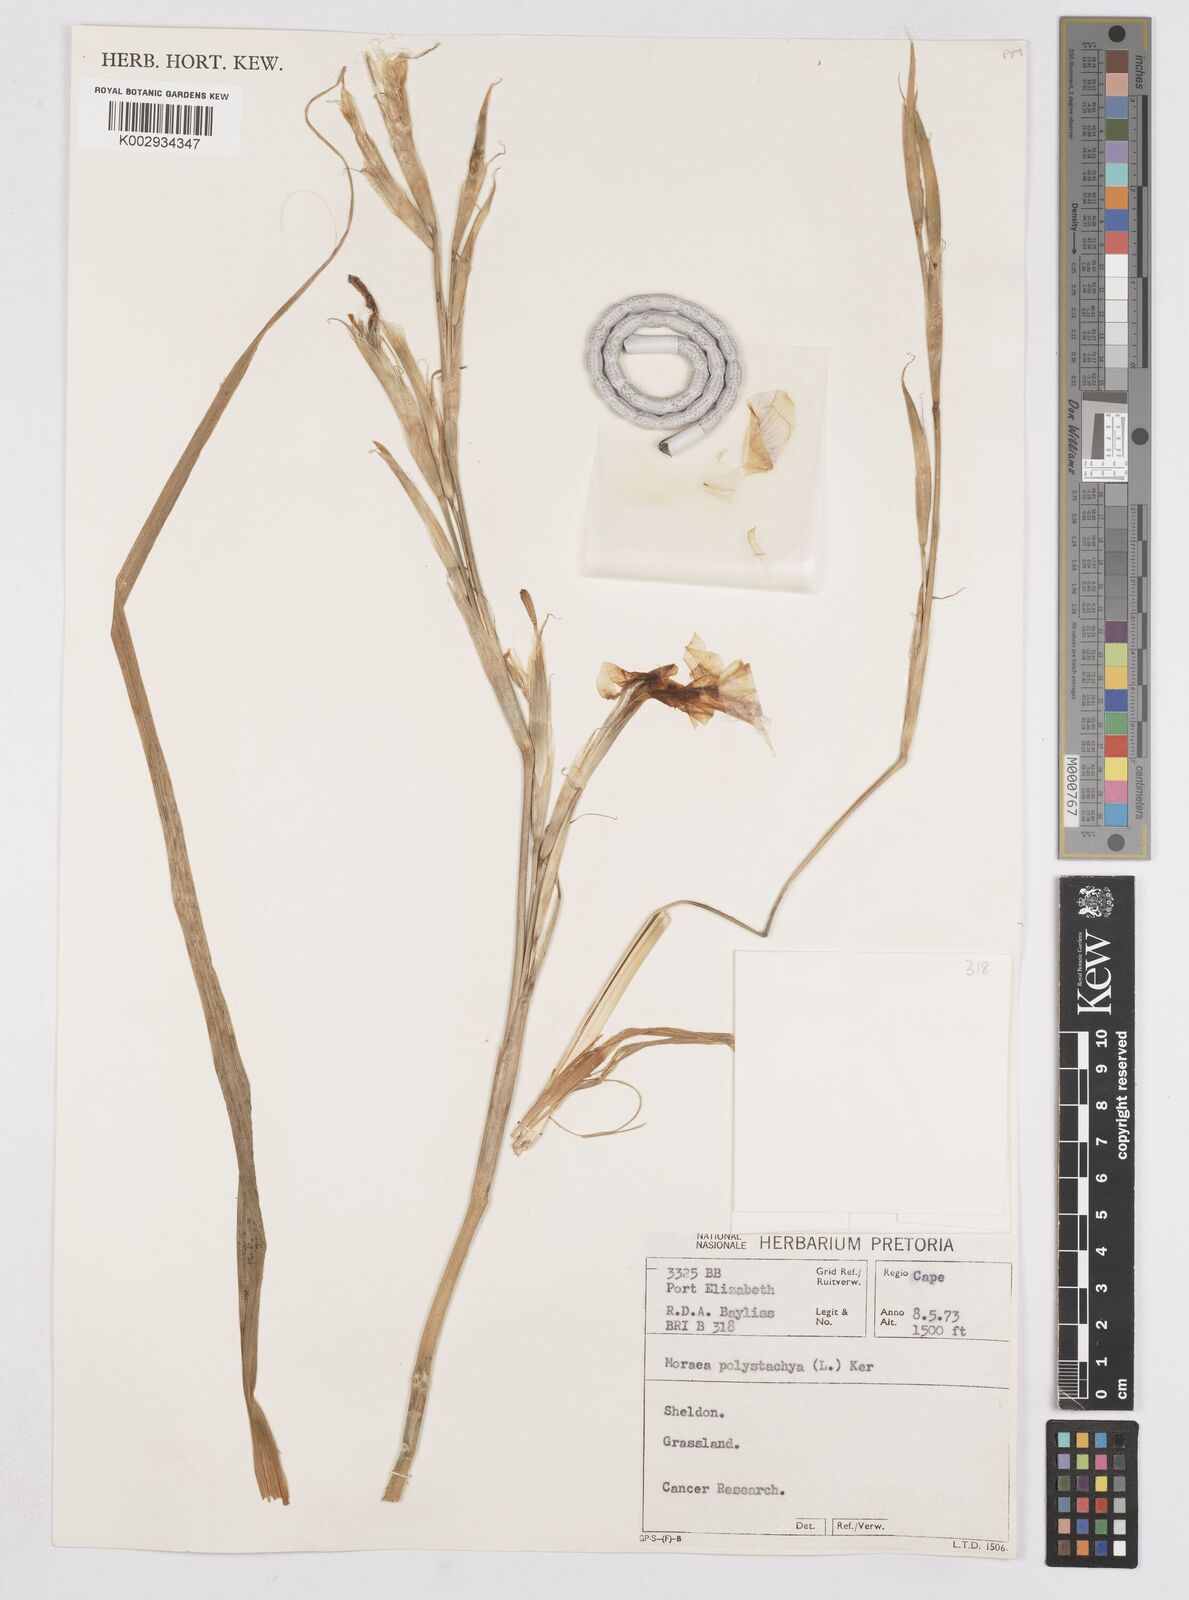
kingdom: Plantae
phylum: Tracheophyta
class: Liliopsida
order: Asparagales
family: Iridaceae
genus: Moraea
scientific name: Moraea polystachya
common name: Blue-tulip
